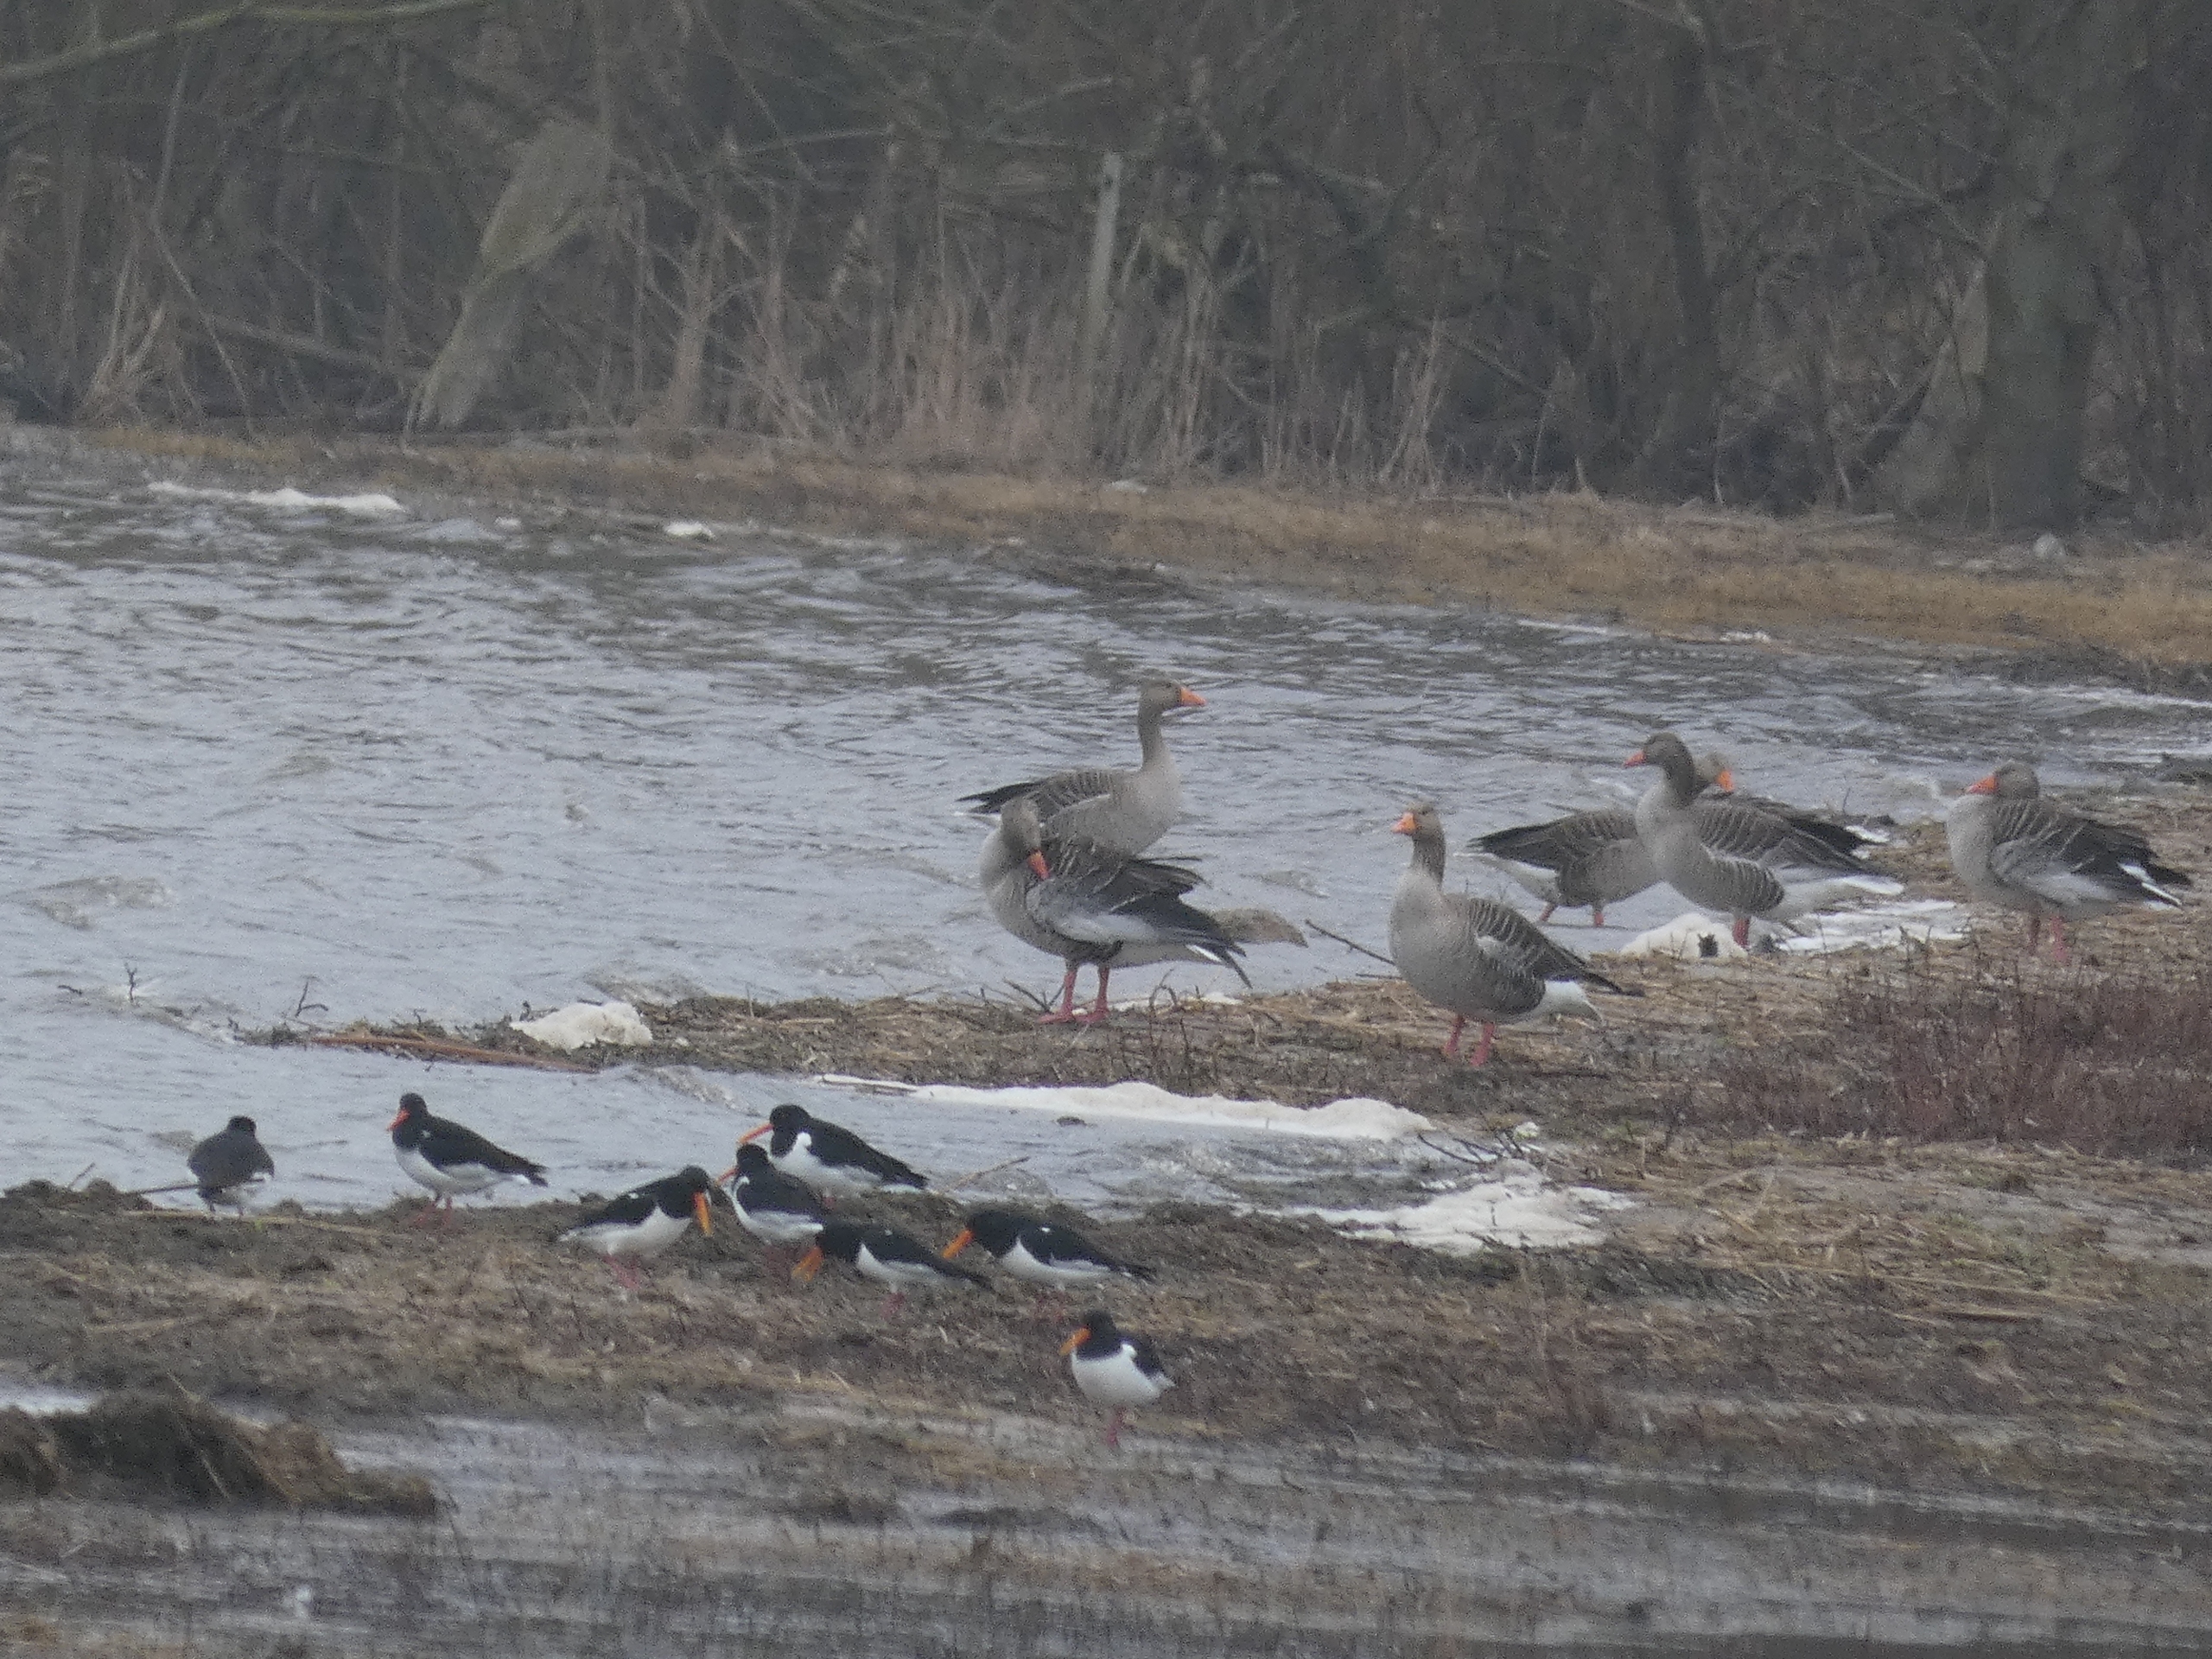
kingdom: Animalia
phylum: Chordata
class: Aves
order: Anseriformes
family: Anatidae
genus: Anser
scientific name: Anser anser
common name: Grågås
